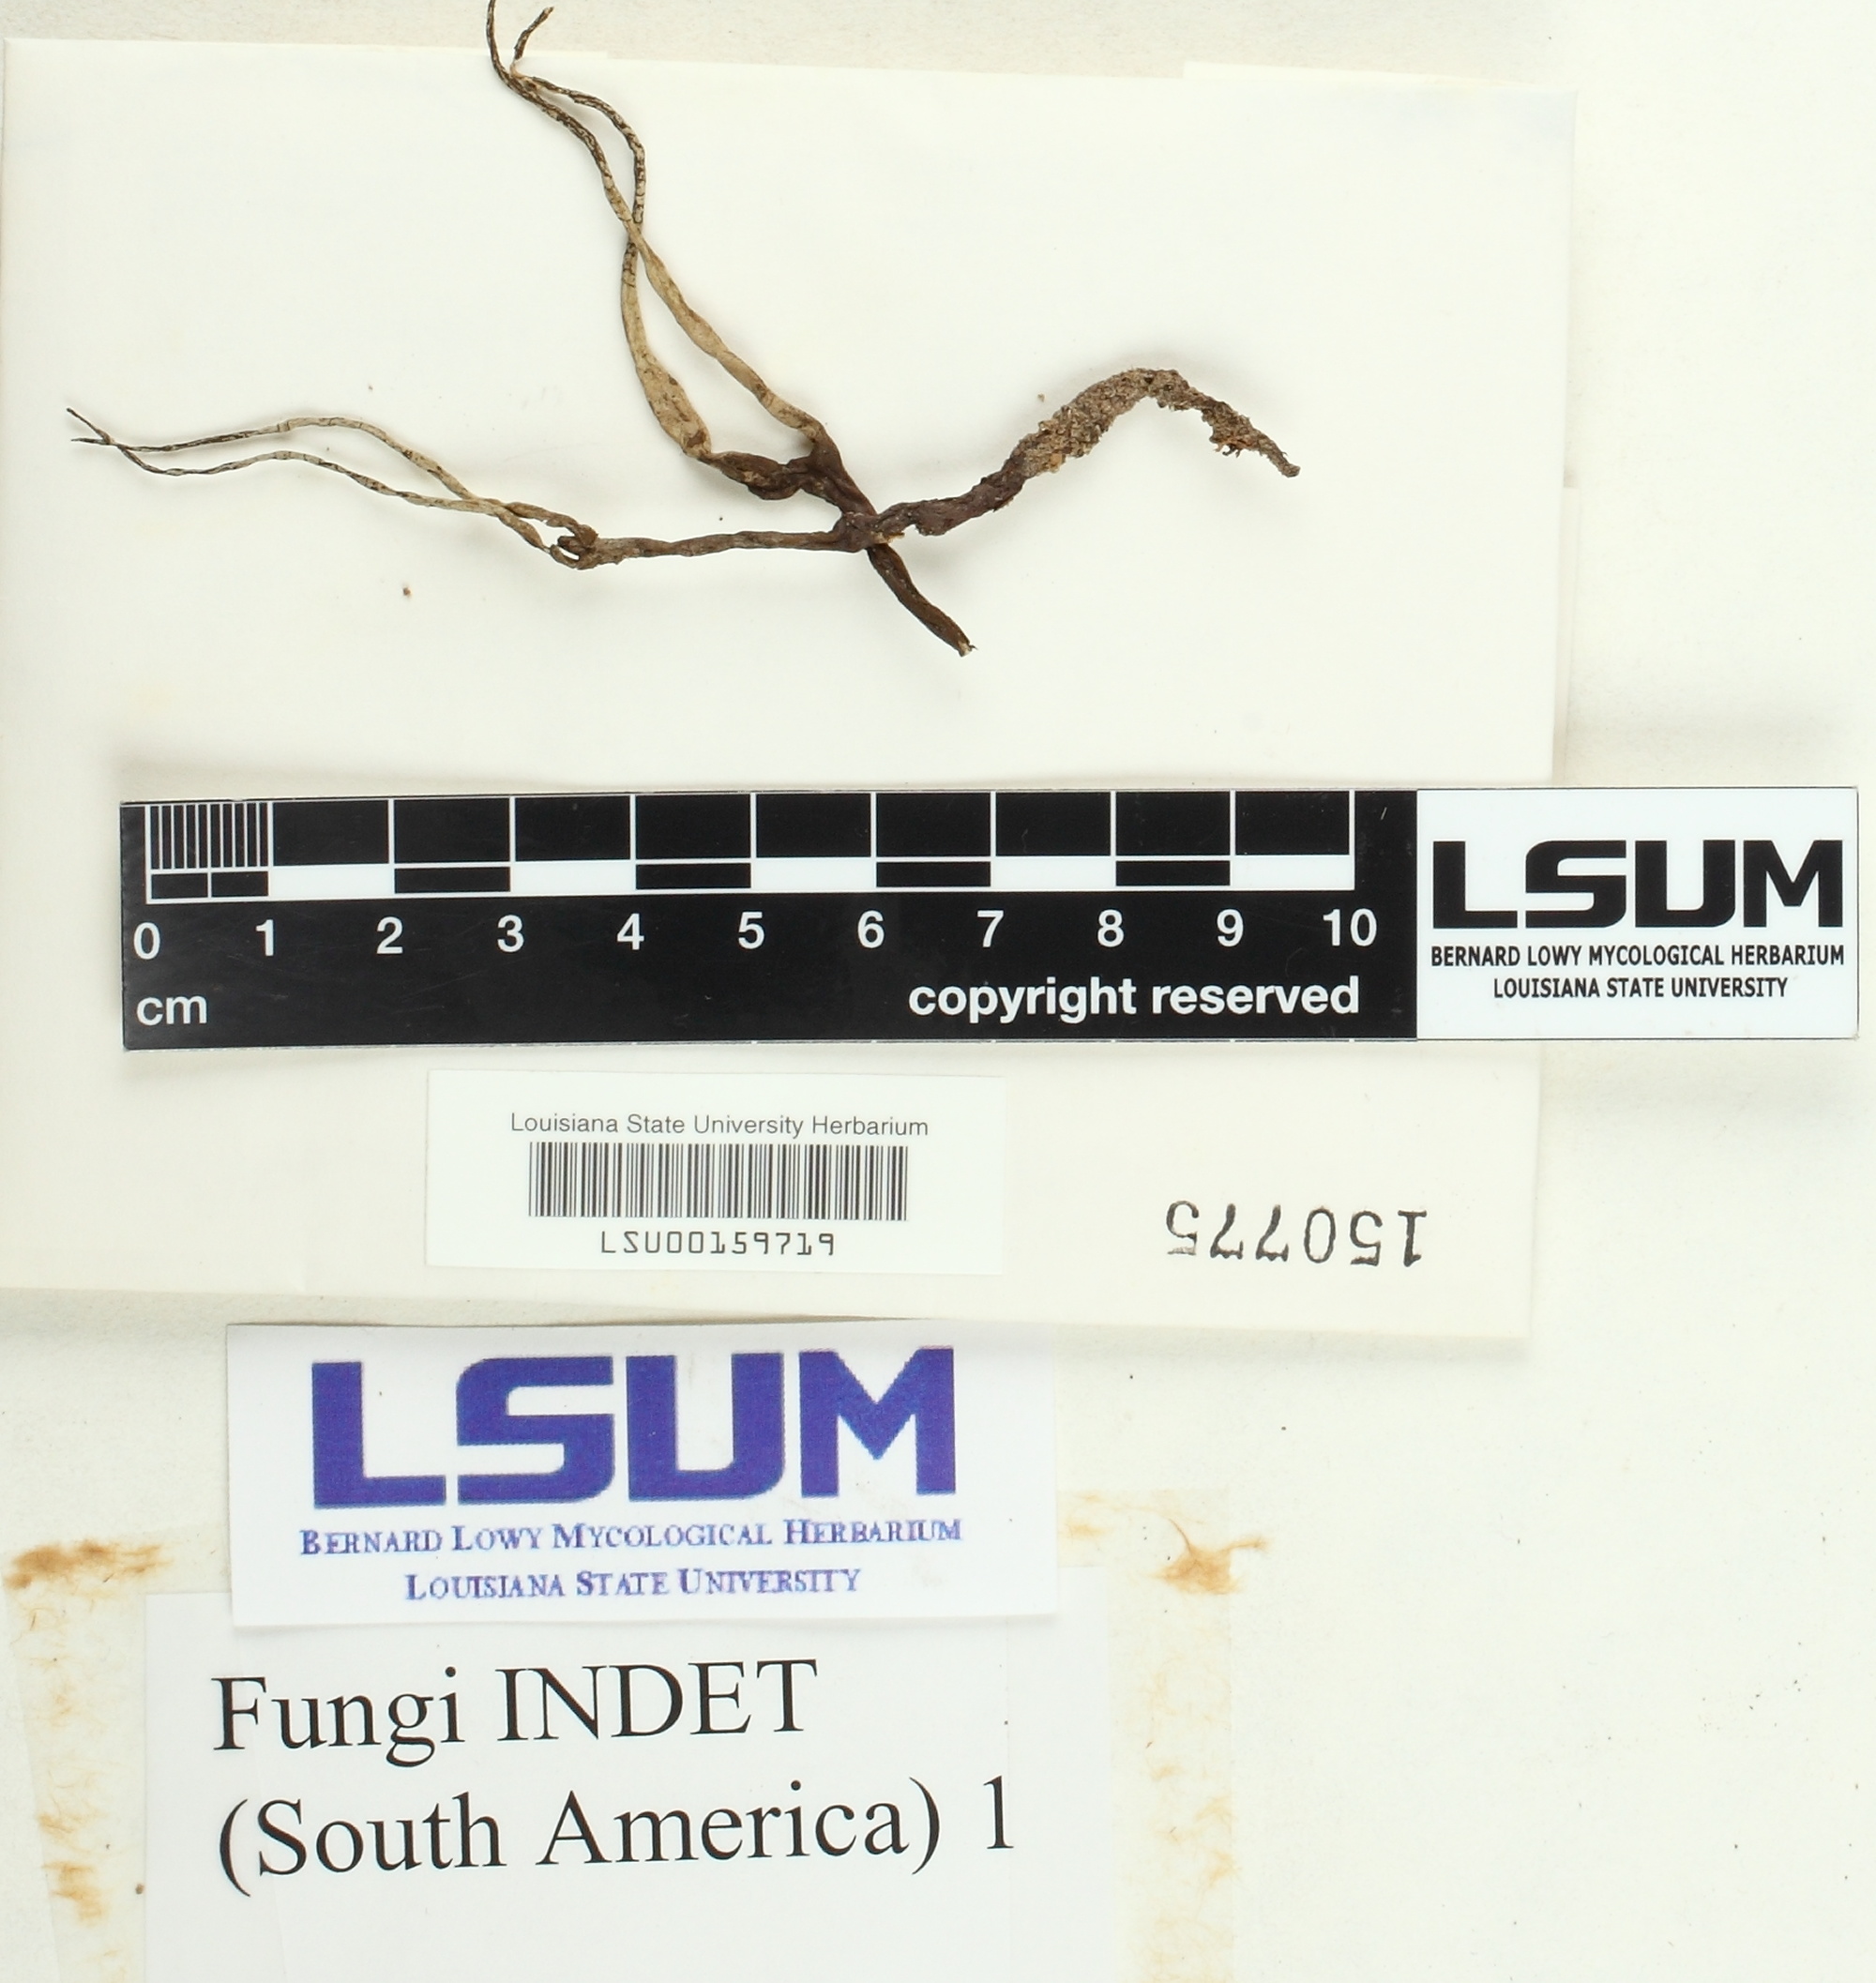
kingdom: Fungi
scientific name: Fungi
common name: Fungi
